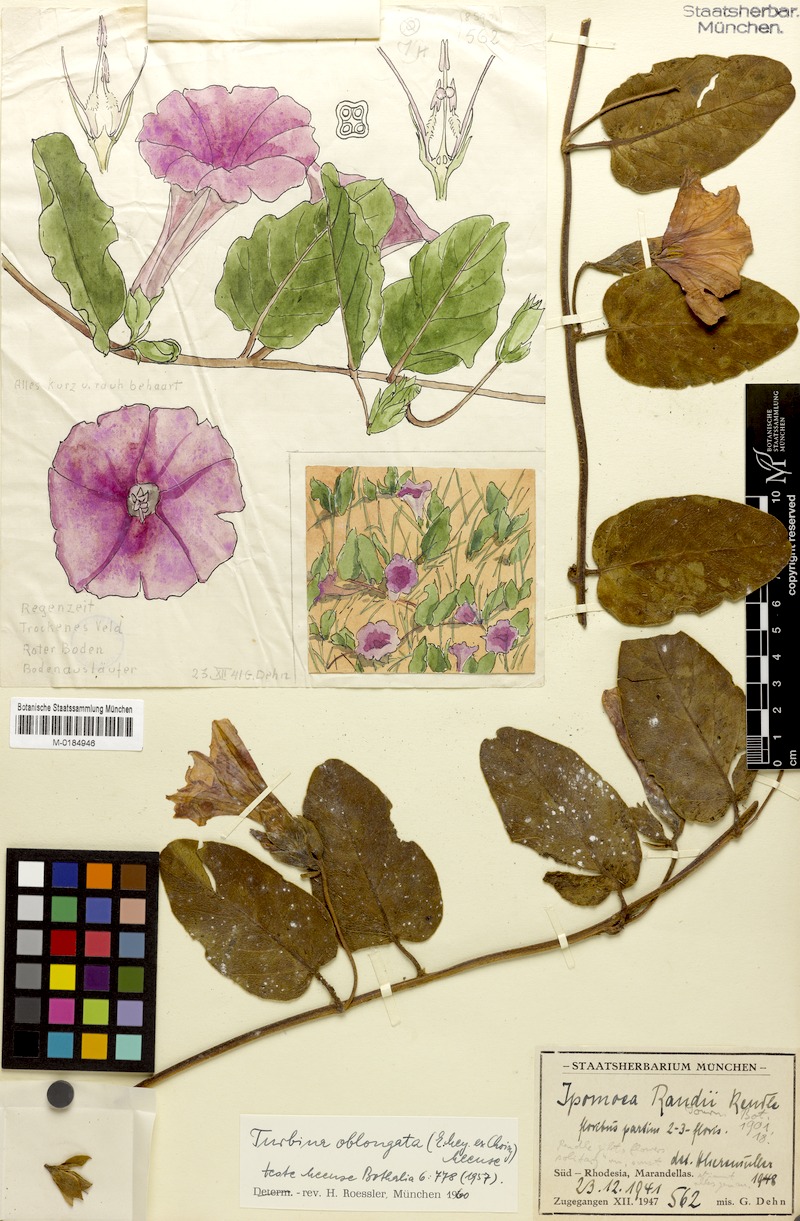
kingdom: Plantae
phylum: Tracheophyta
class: Magnoliopsida
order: Solanales
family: Convolvulaceae
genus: Ipomoea
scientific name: Ipomoea oblongata
